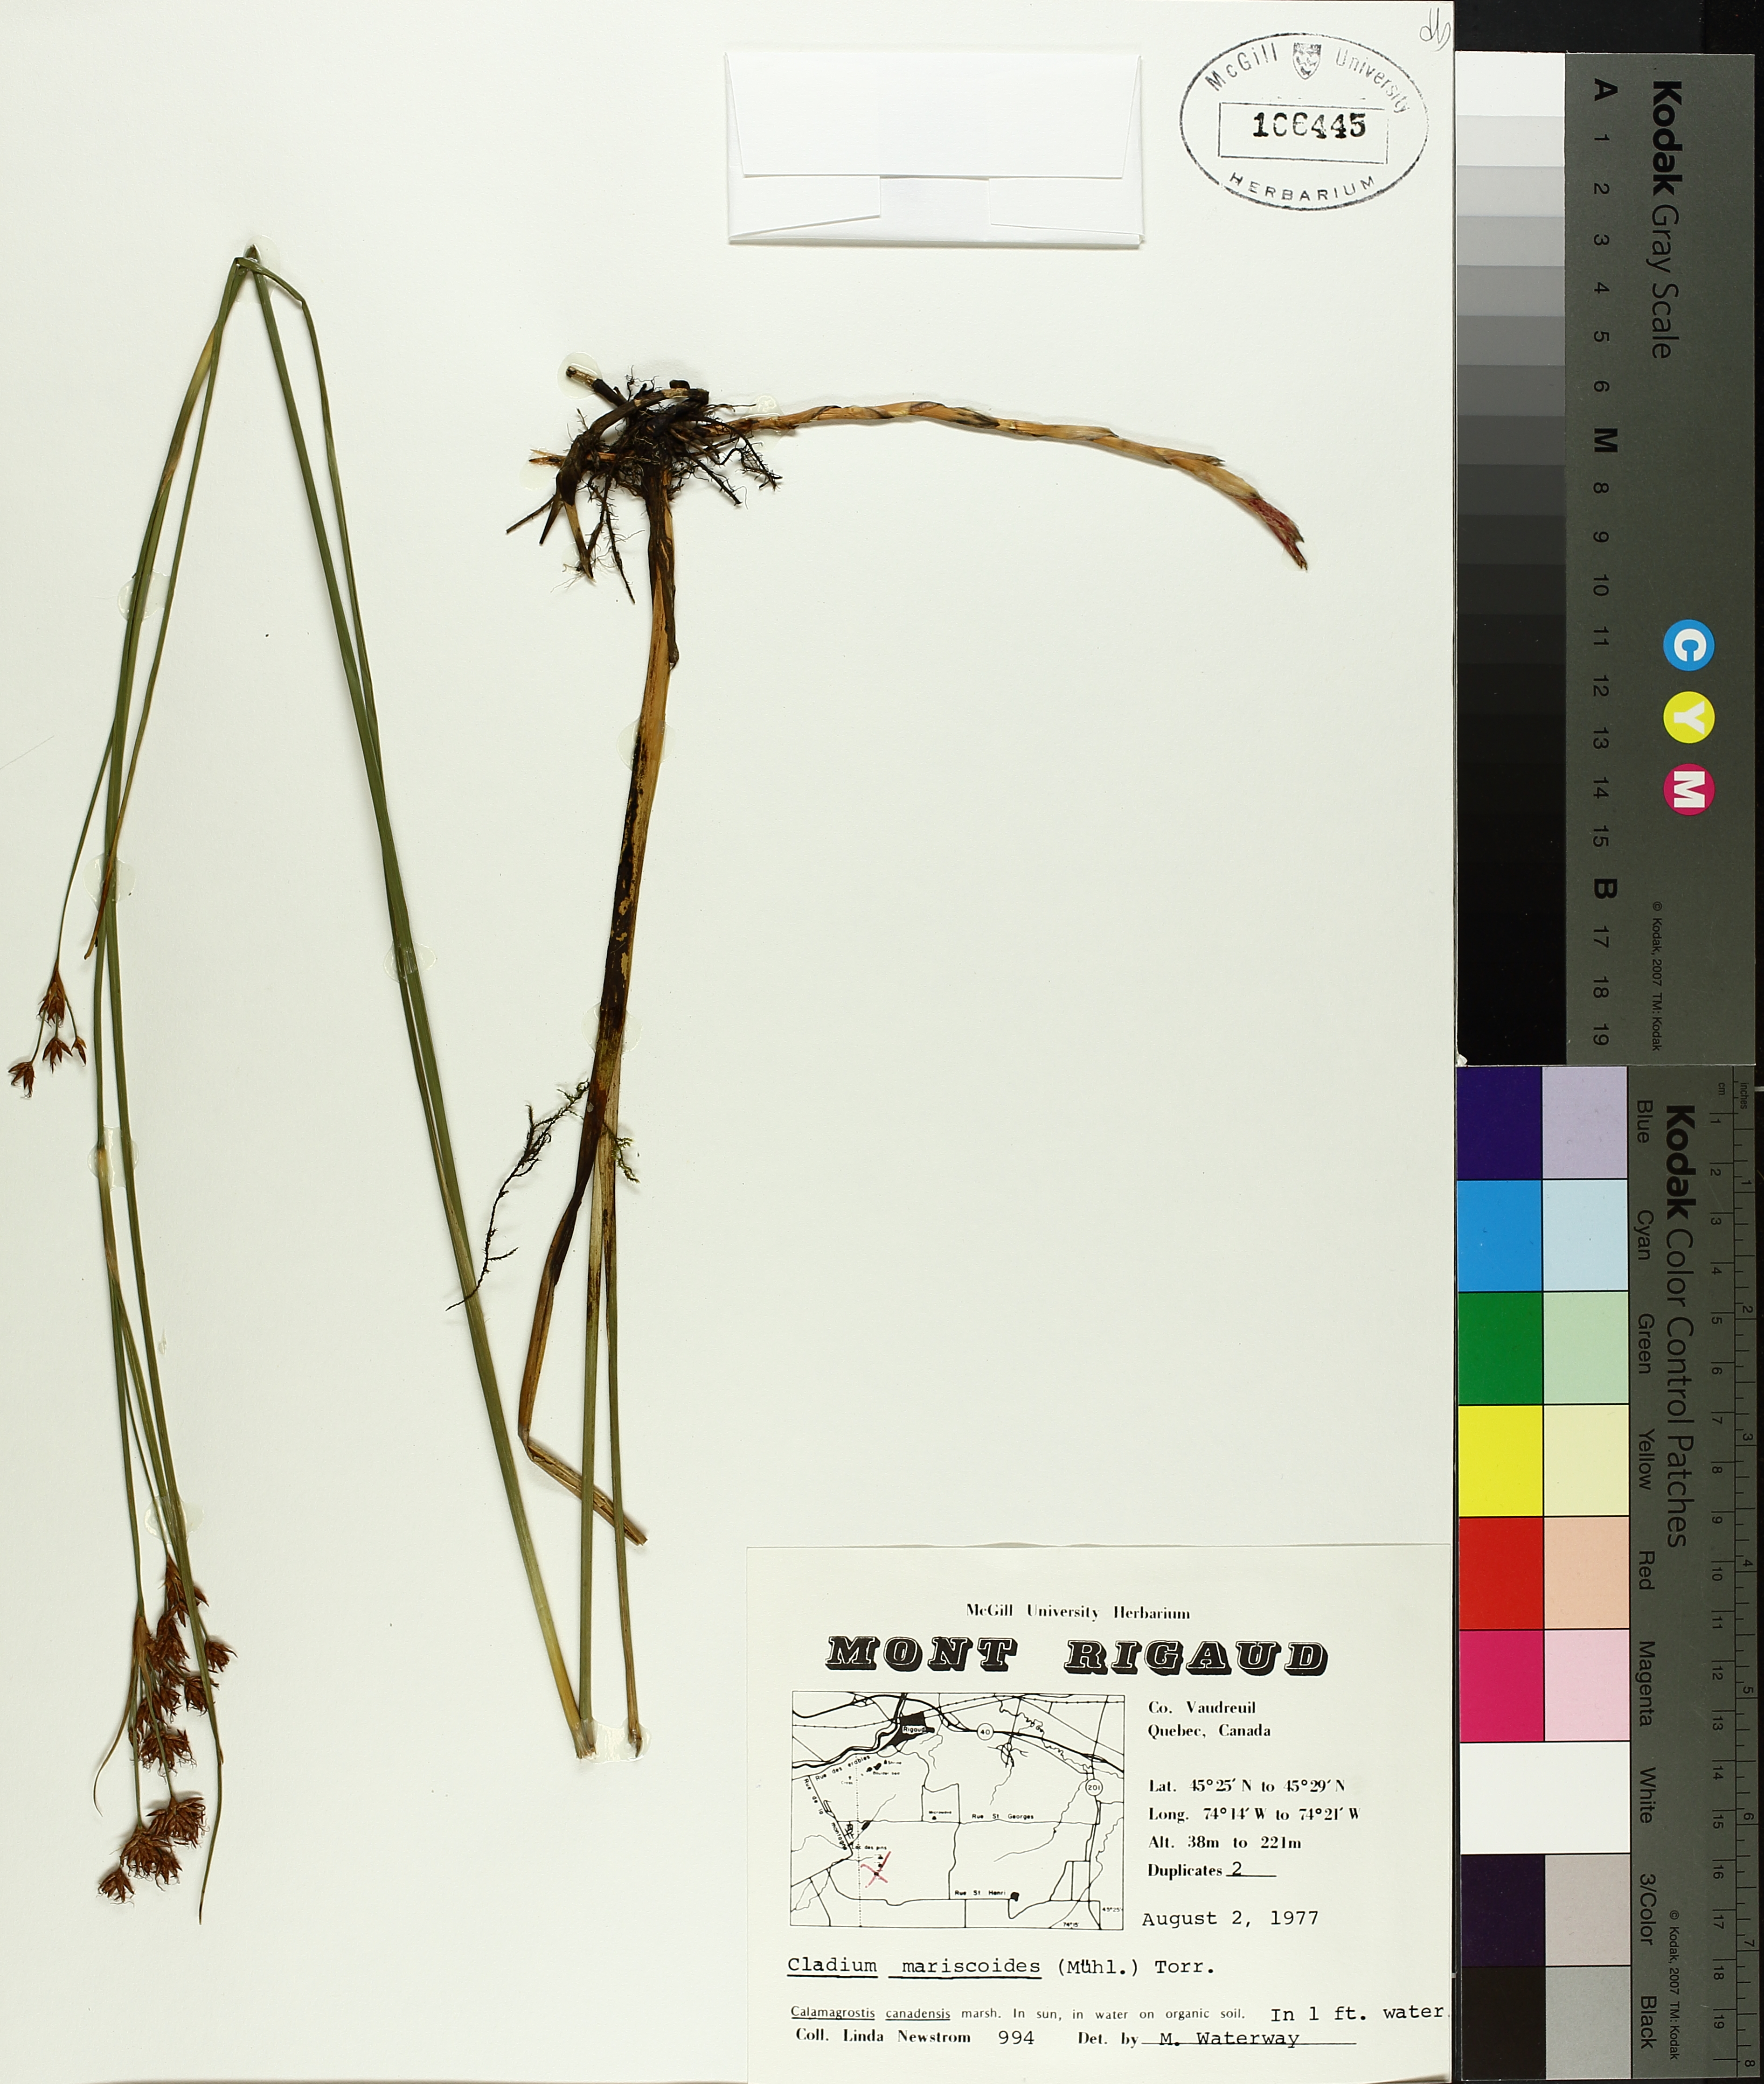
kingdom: Plantae
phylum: Tracheophyta
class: Liliopsida
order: Poales
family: Cyperaceae
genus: Cladium
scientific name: Cladium mariscoides
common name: Smooth sawgrass
